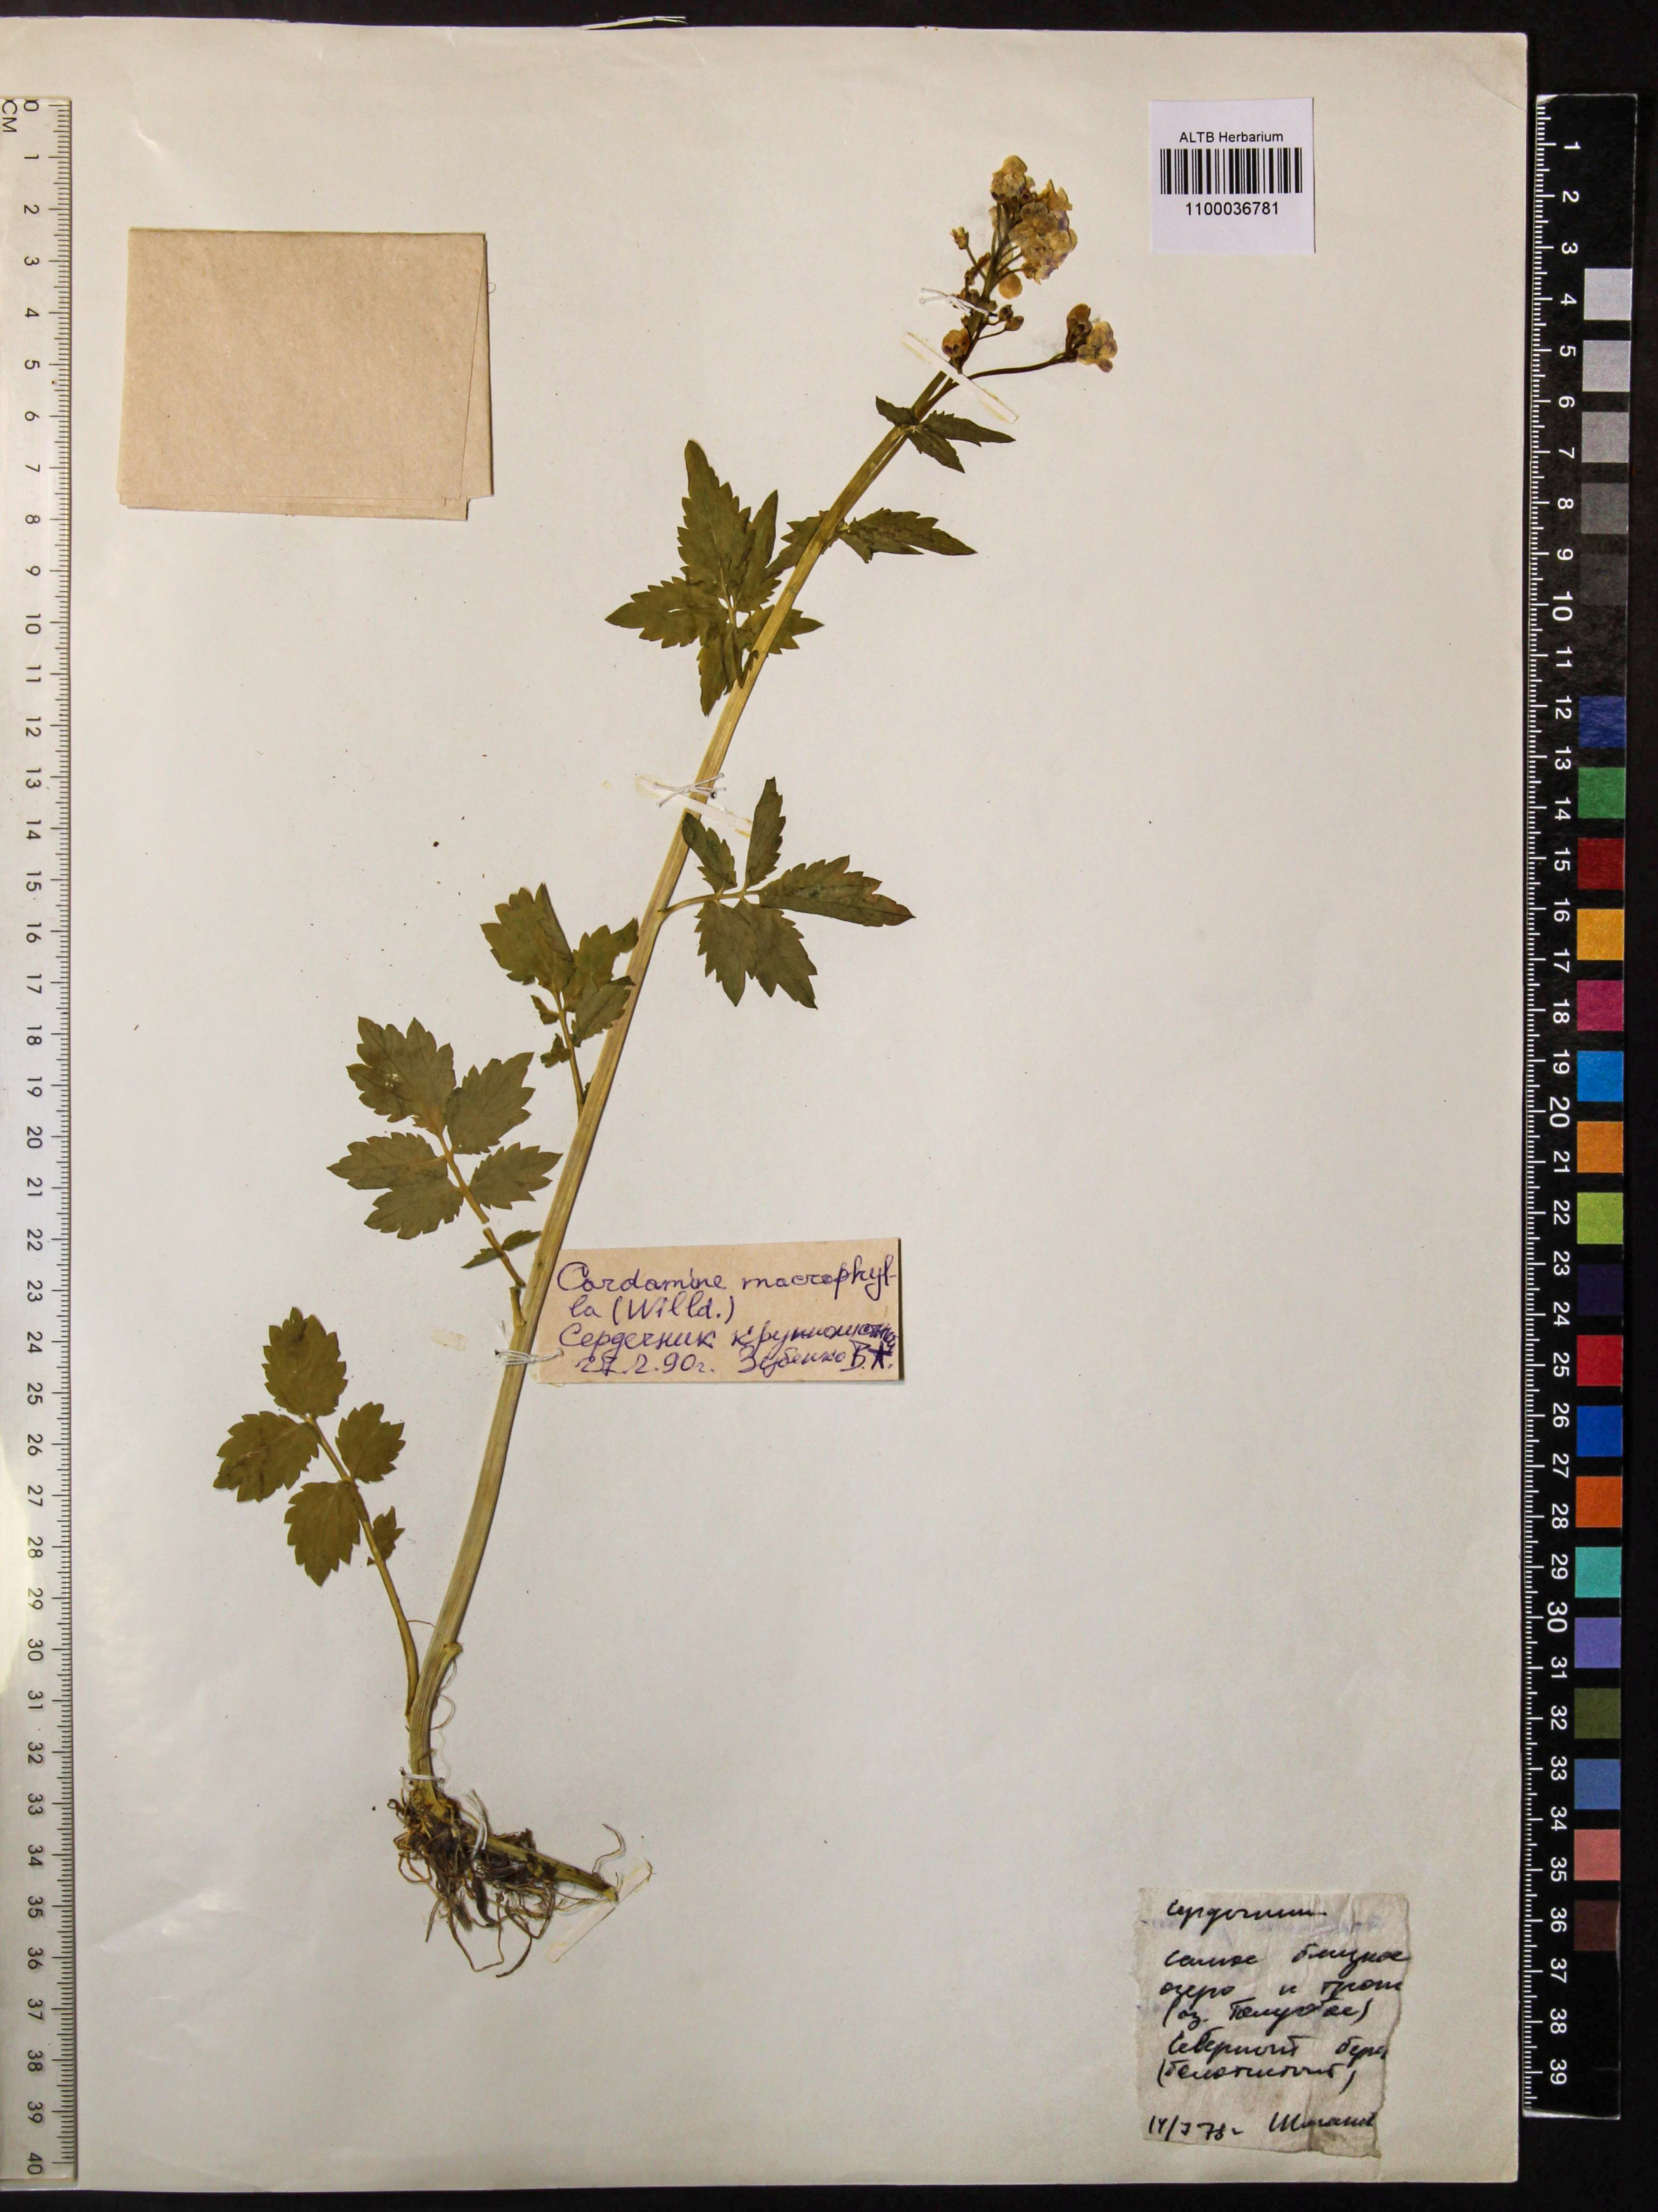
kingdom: Plantae
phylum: Tracheophyta
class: Magnoliopsida
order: Brassicales
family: Brassicaceae
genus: Cardamine
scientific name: Cardamine macrophylla
